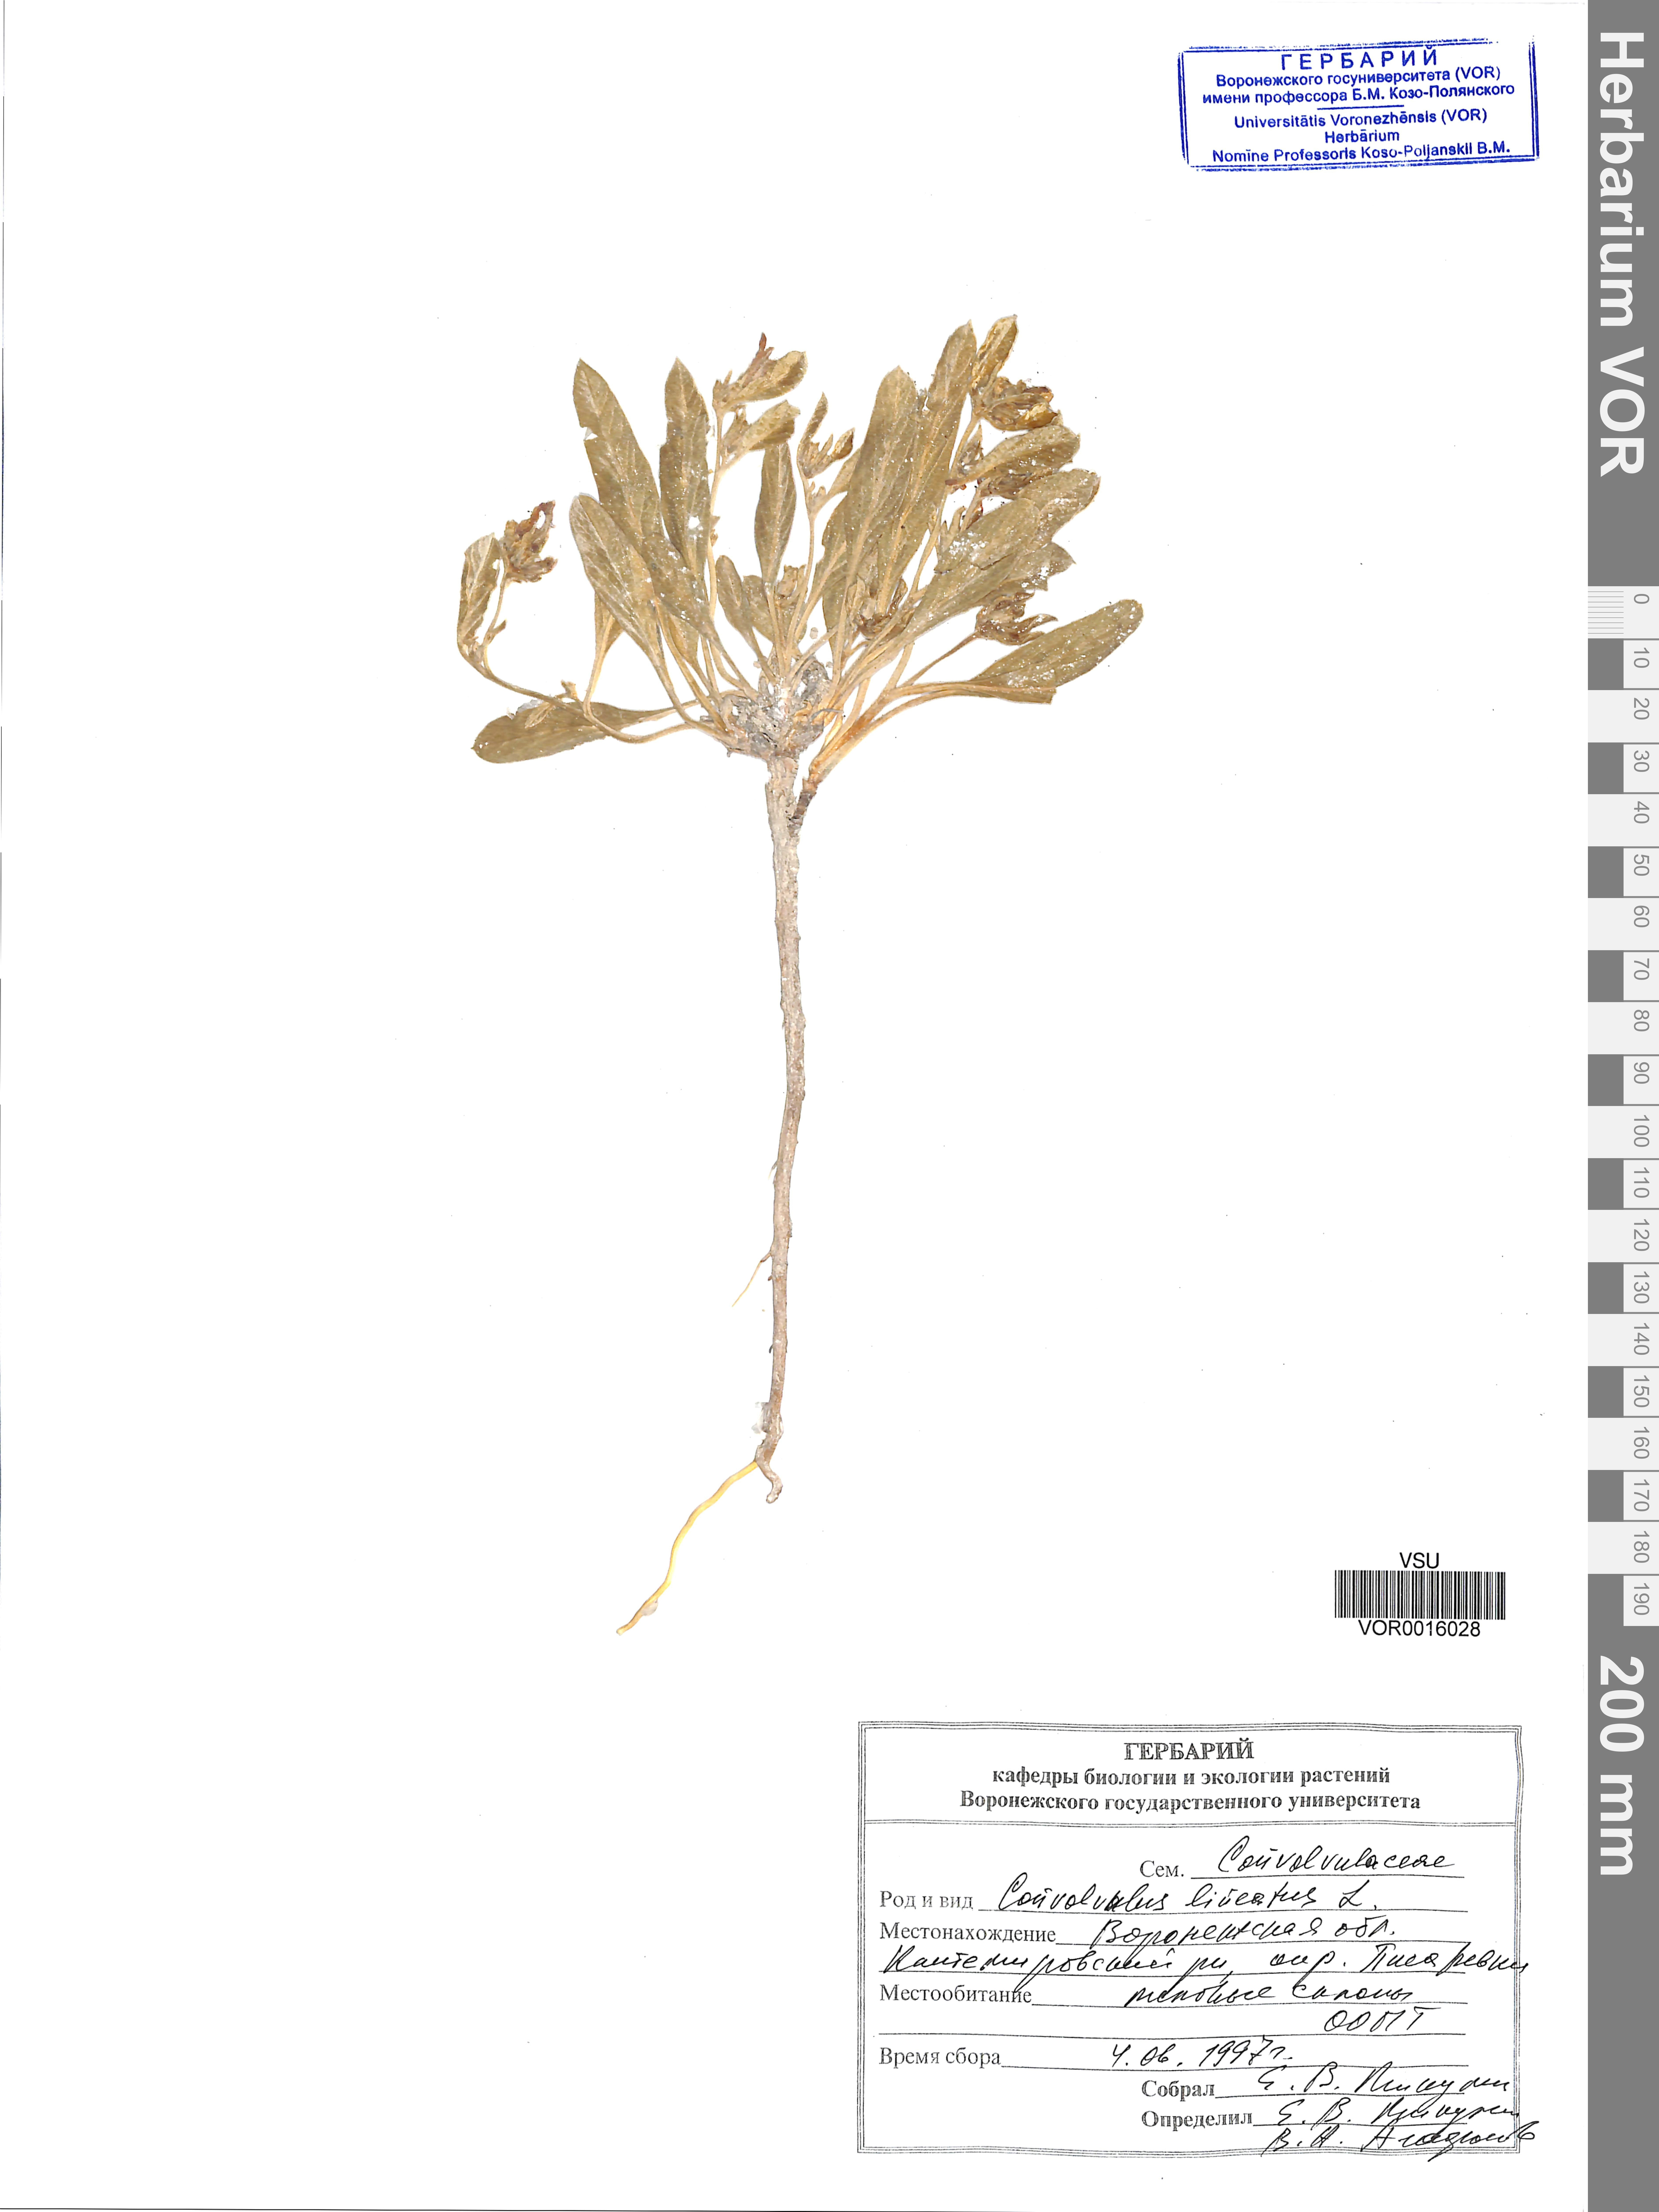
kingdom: Plantae
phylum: Tracheophyta
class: Magnoliopsida
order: Solanales
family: Convolvulaceae
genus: Convolvulus
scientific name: Convolvulus lineatus
